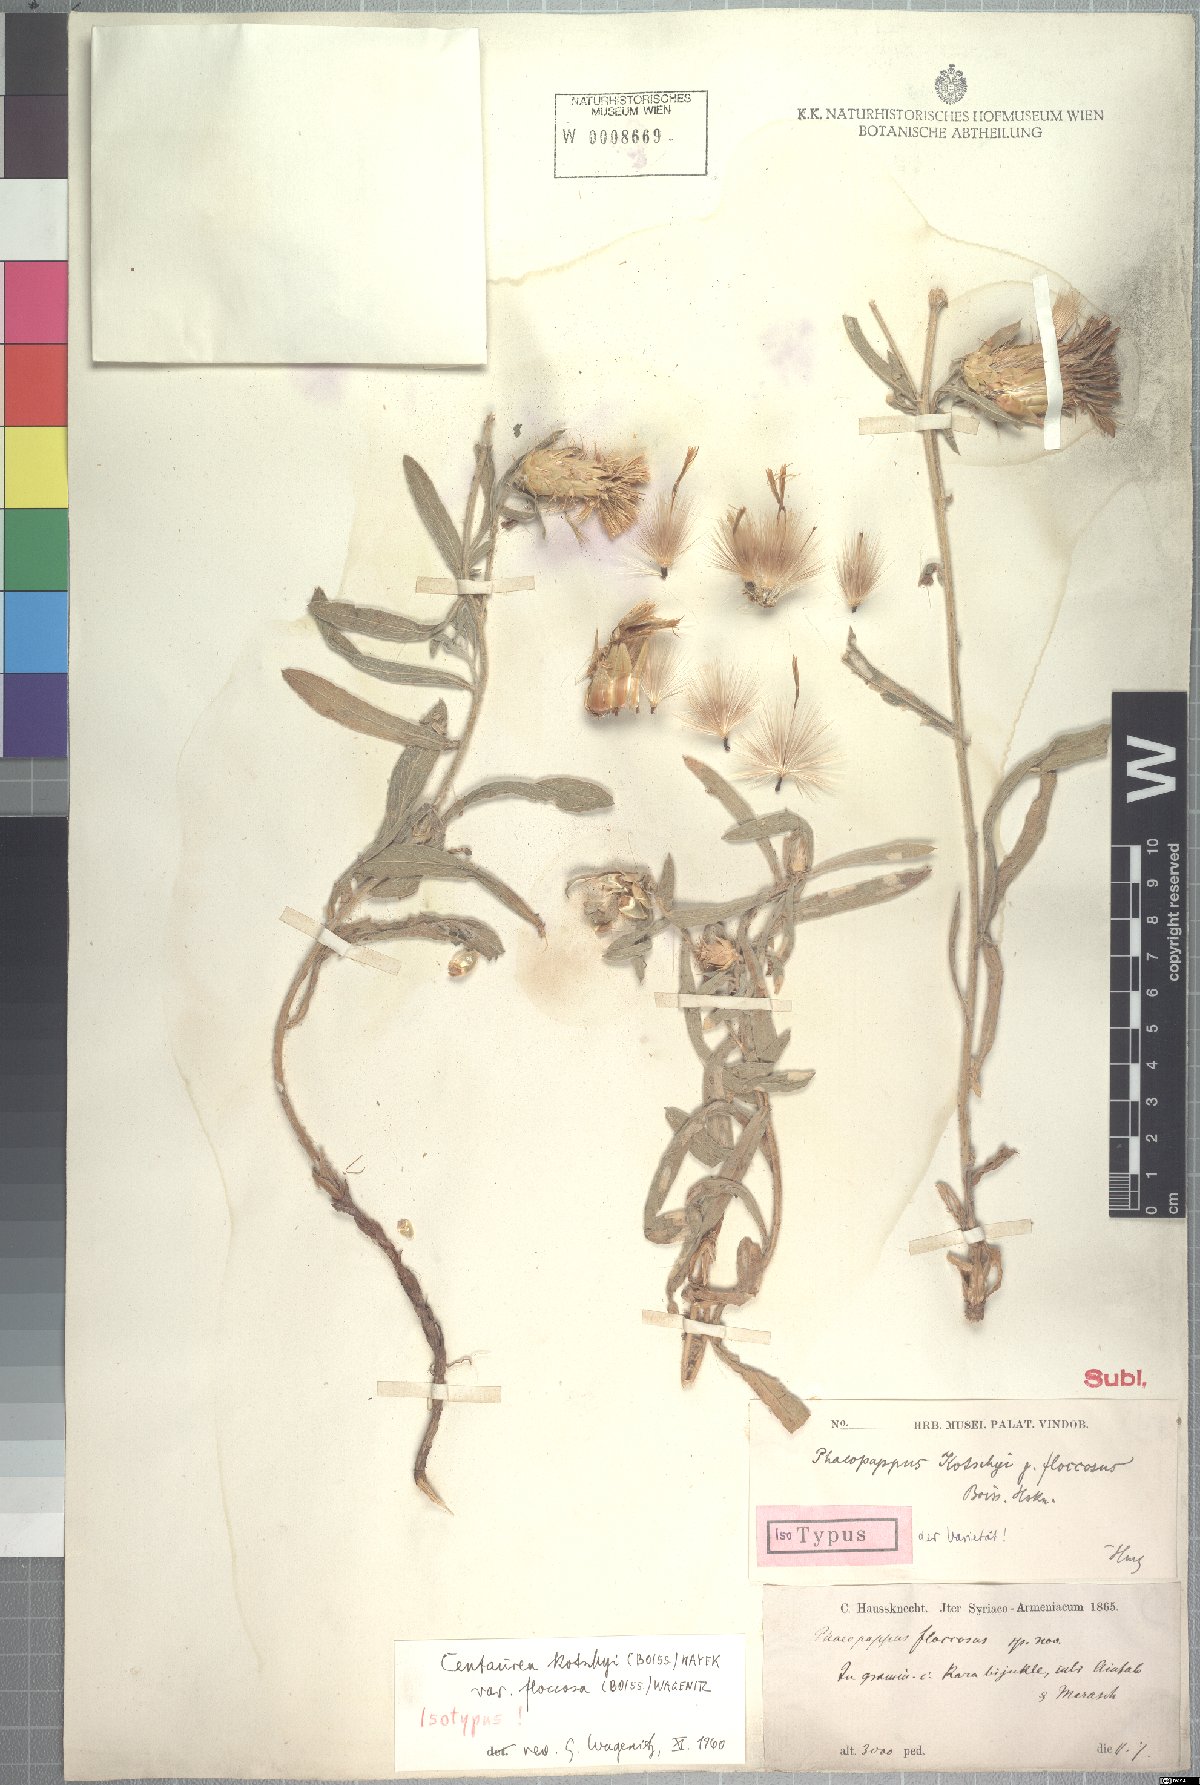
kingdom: Plantae
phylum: Tracheophyta
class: Magnoliopsida
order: Asterales
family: Asteraceae
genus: Centaurea
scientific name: Centaurea kotschyi
